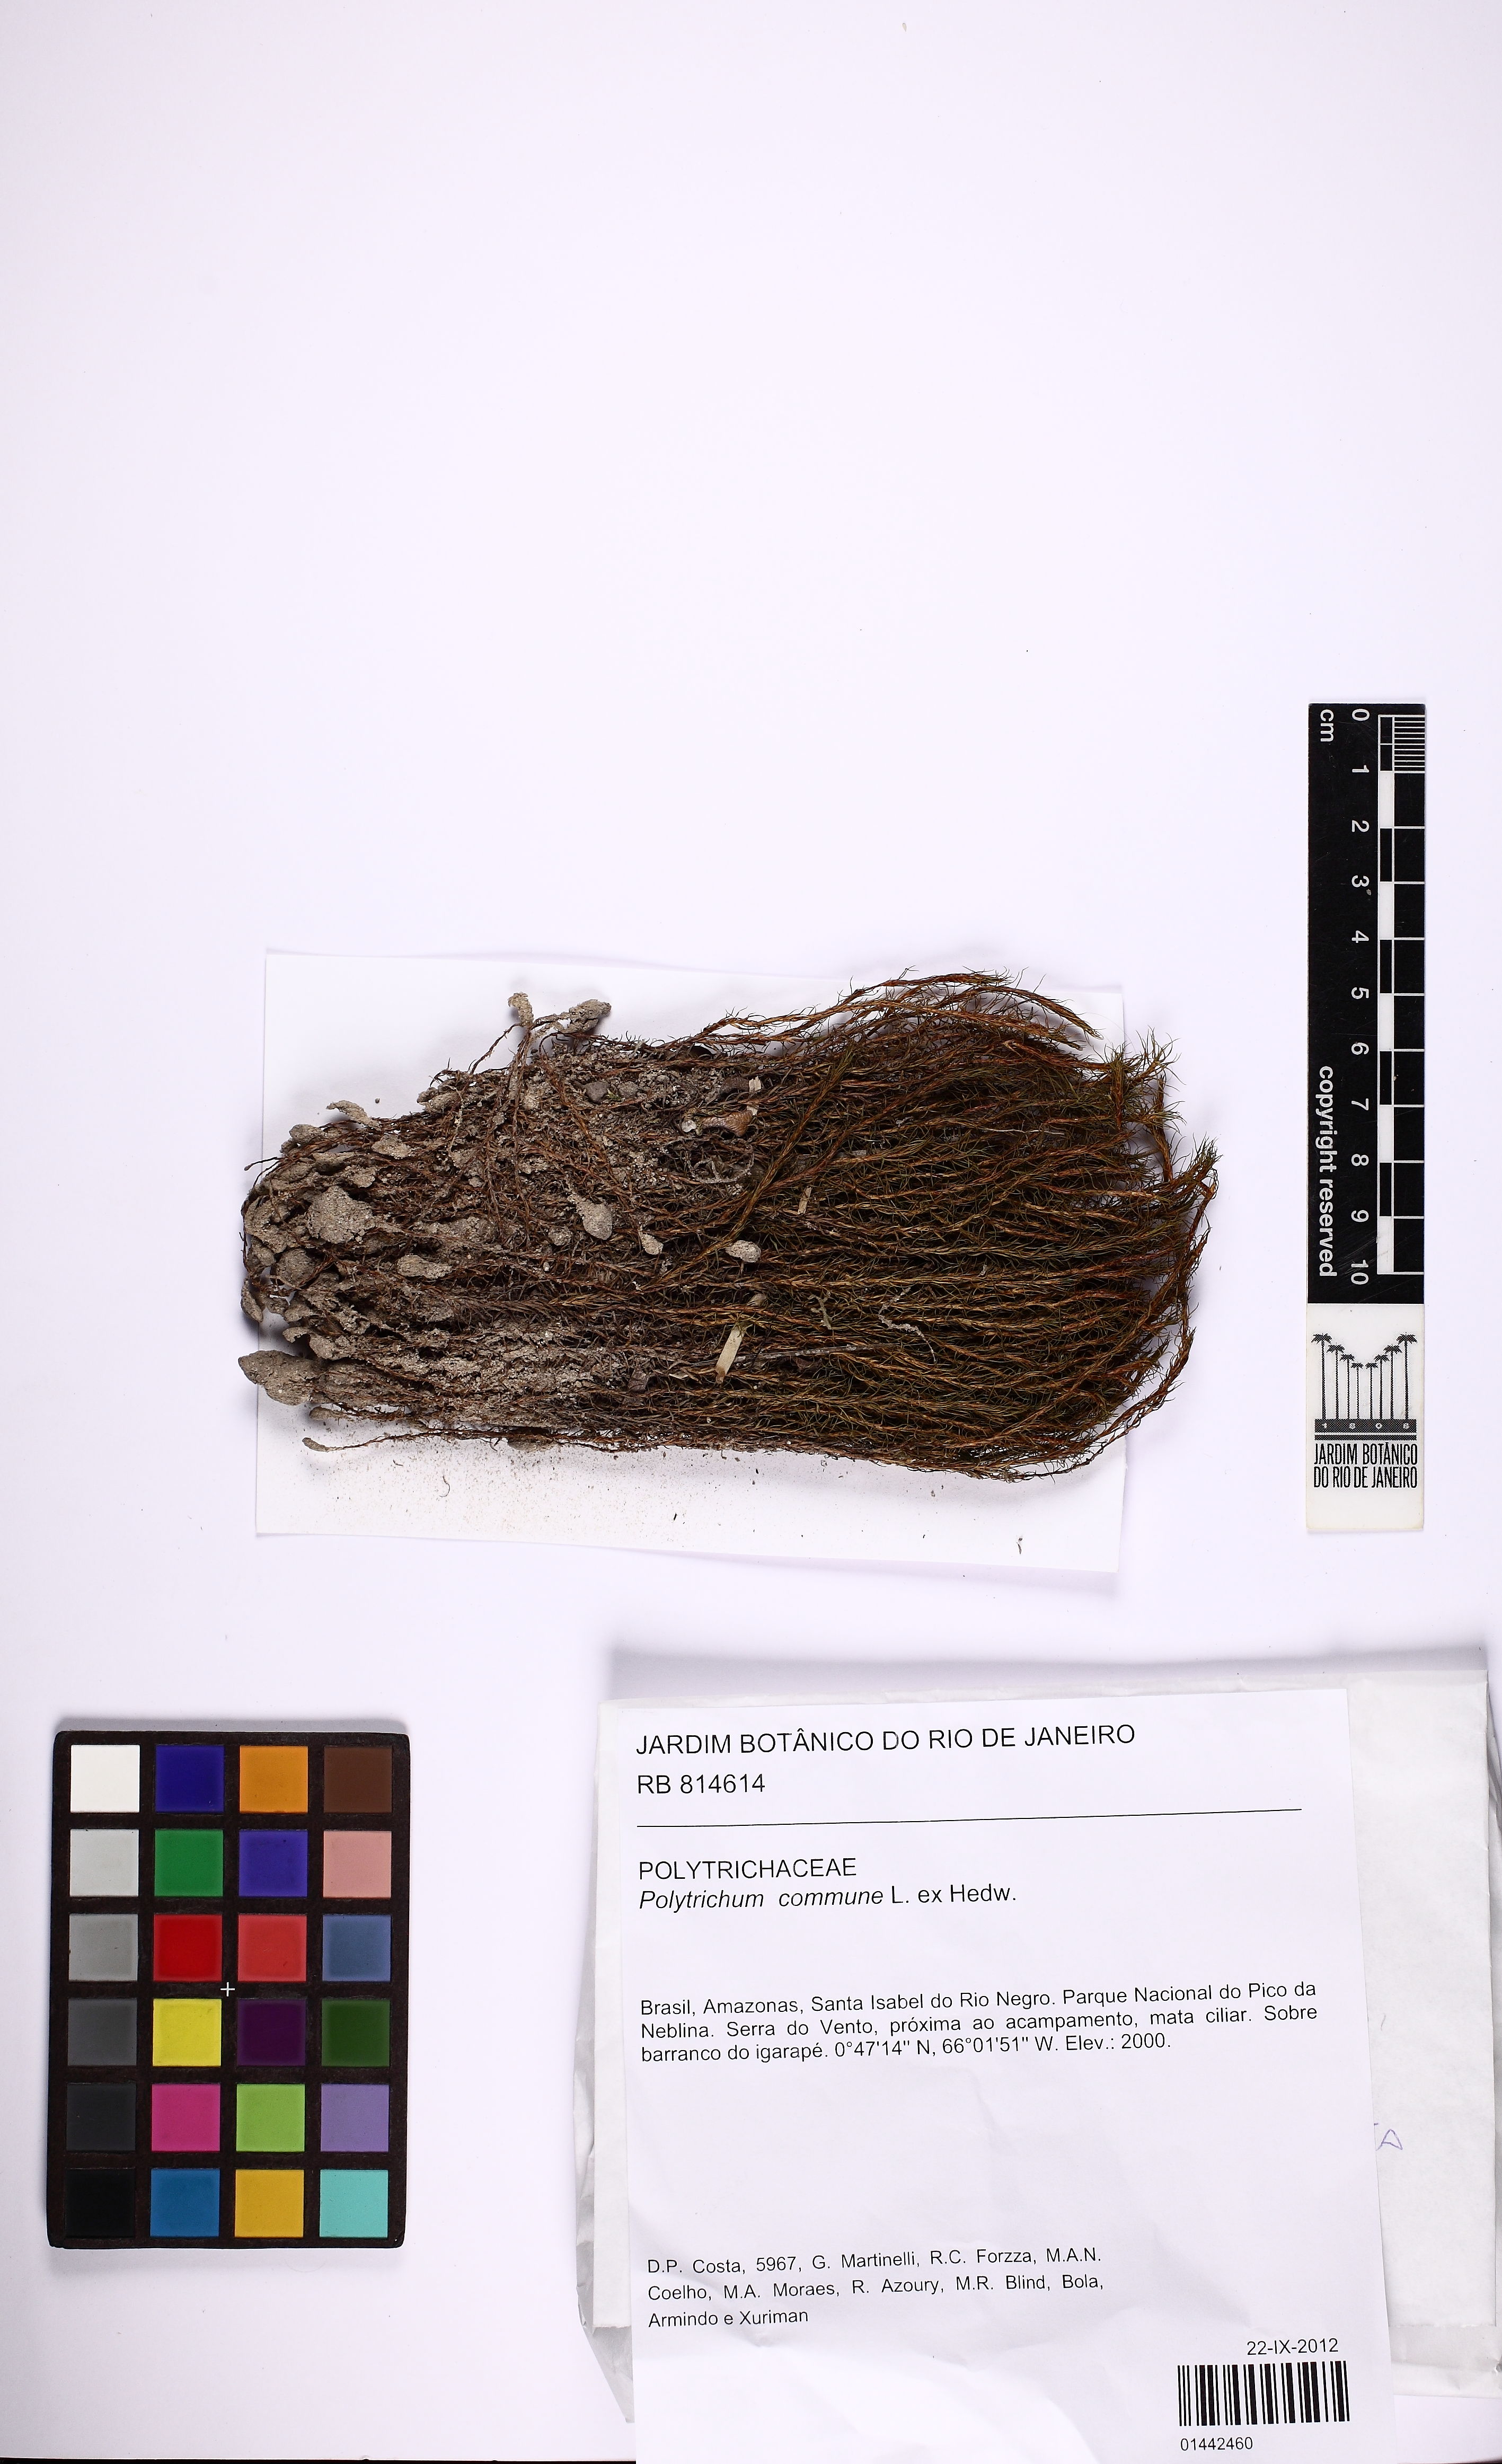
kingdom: Plantae
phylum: Bryophyta
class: Polytrichopsida
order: Polytrichales
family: Polytrichaceae
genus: Polytrichum
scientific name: Polytrichum commune
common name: Common haircap
